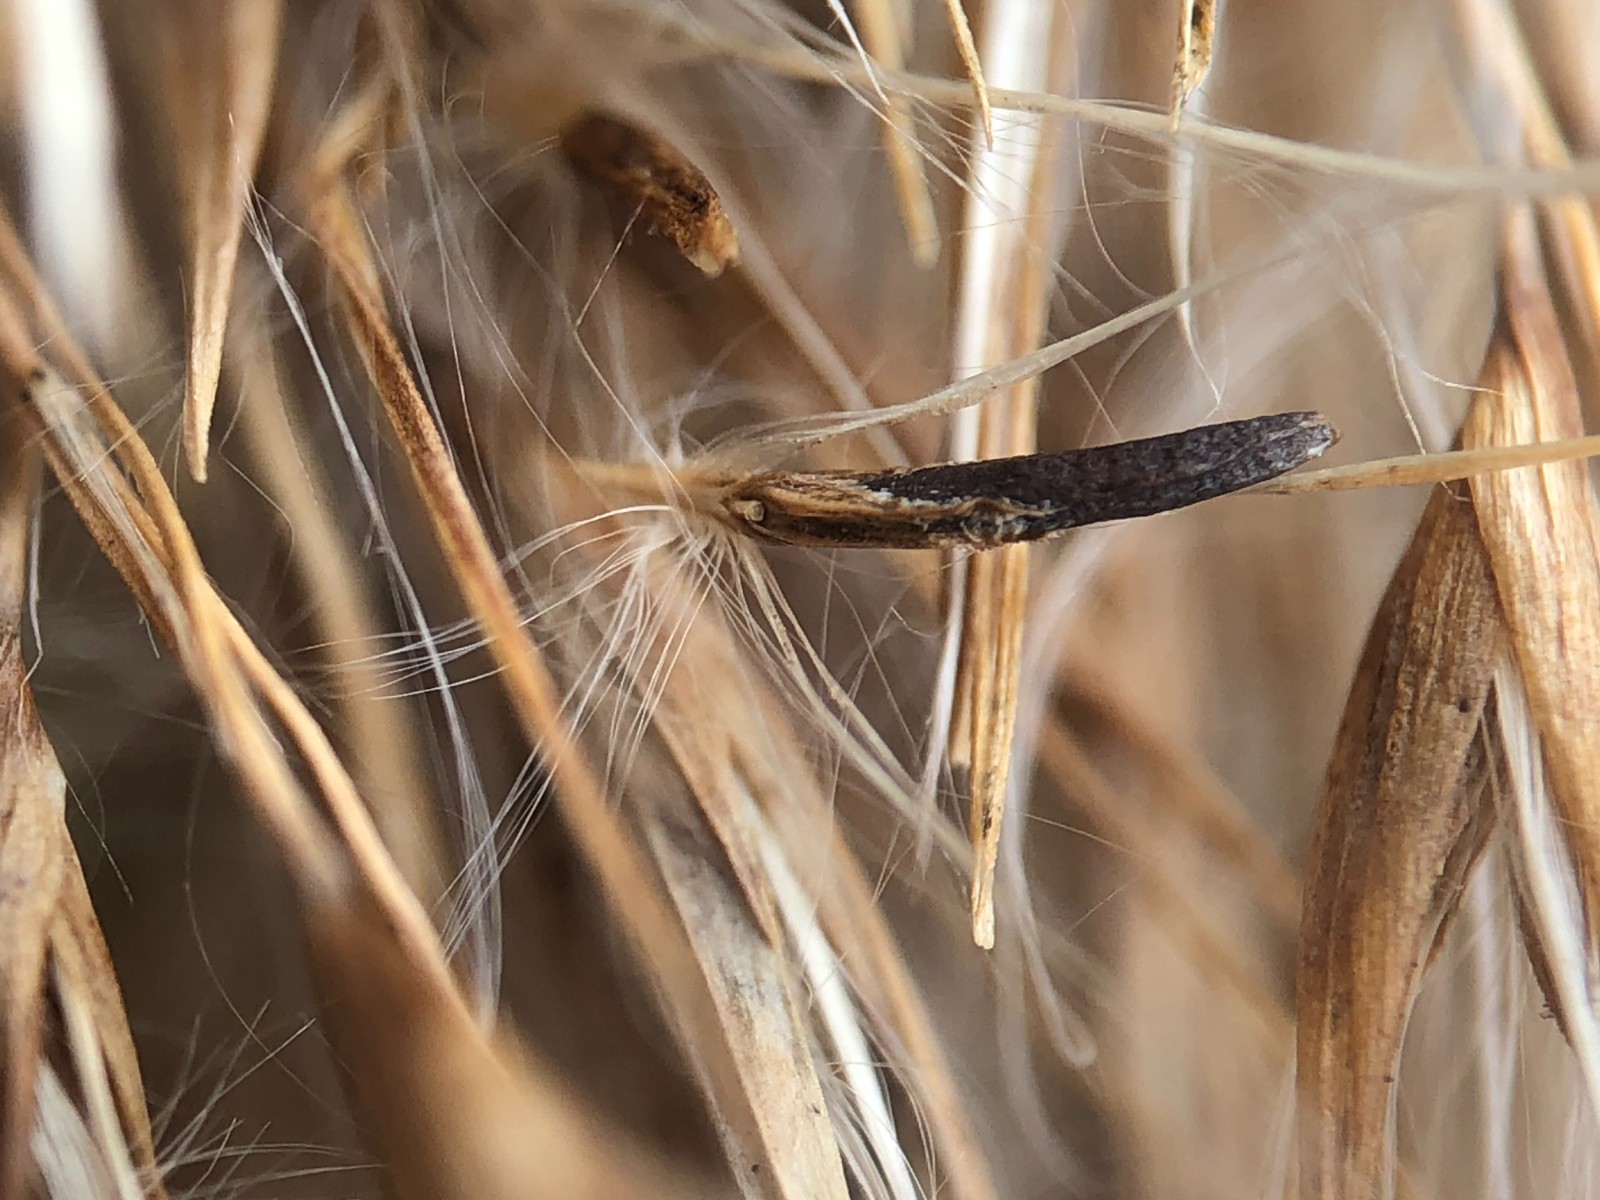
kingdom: Fungi
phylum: Ascomycota
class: Sordariomycetes
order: Hypocreales
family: Clavicipitaceae
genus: Claviceps
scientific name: Claviceps arundinis
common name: tagrør-meldrøjer
